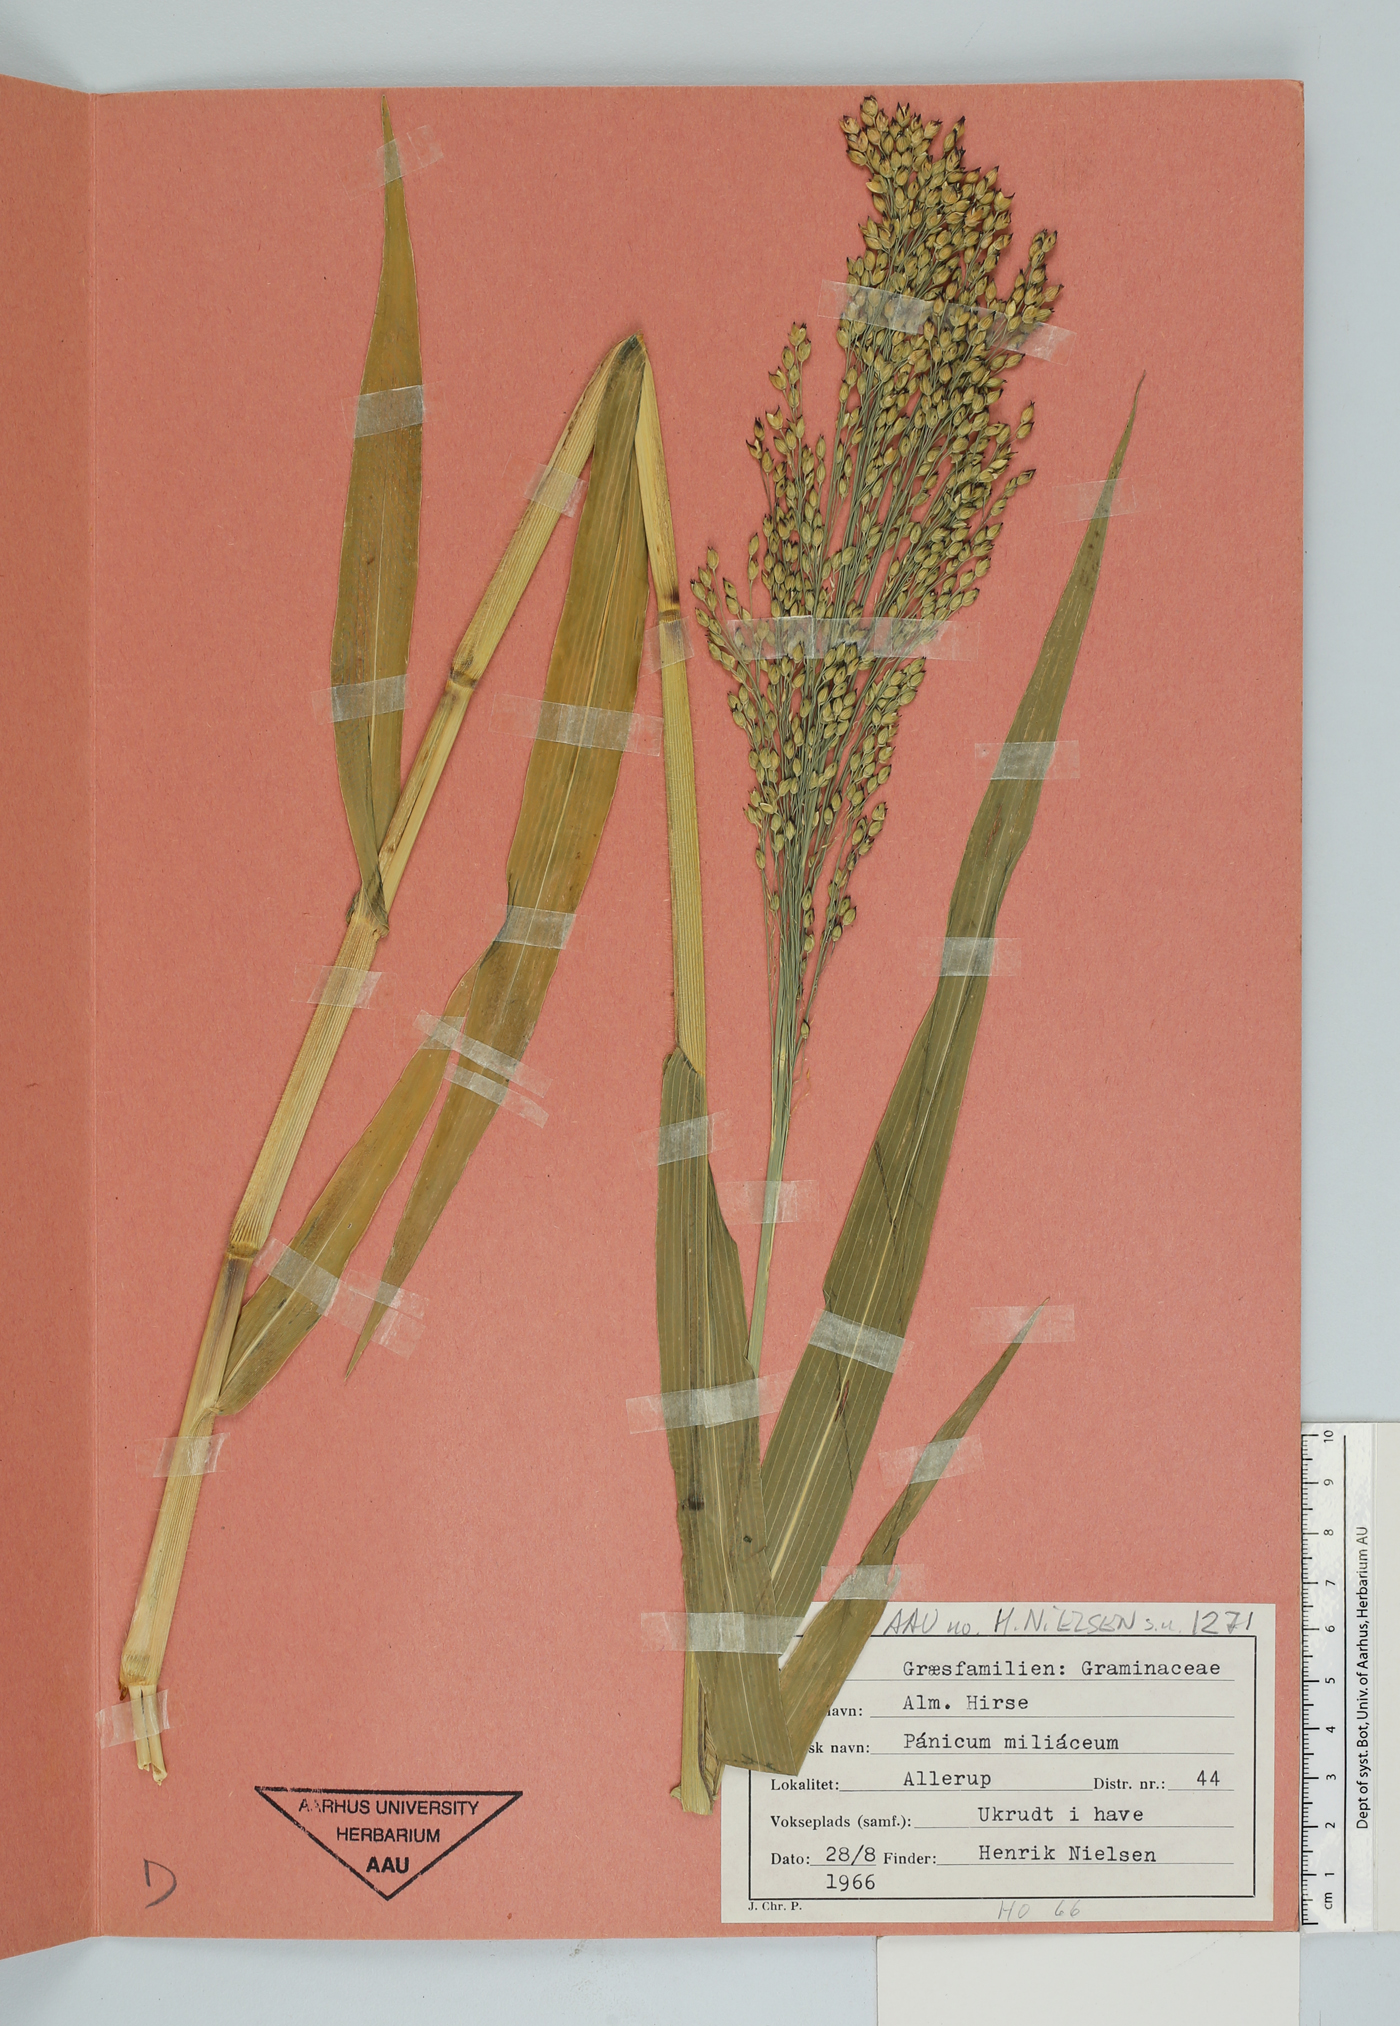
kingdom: Plantae
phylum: Tracheophyta
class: Liliopsida
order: Poales
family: Poaceae
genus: Panicum
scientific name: Panicum miliaceum
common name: Common millet
